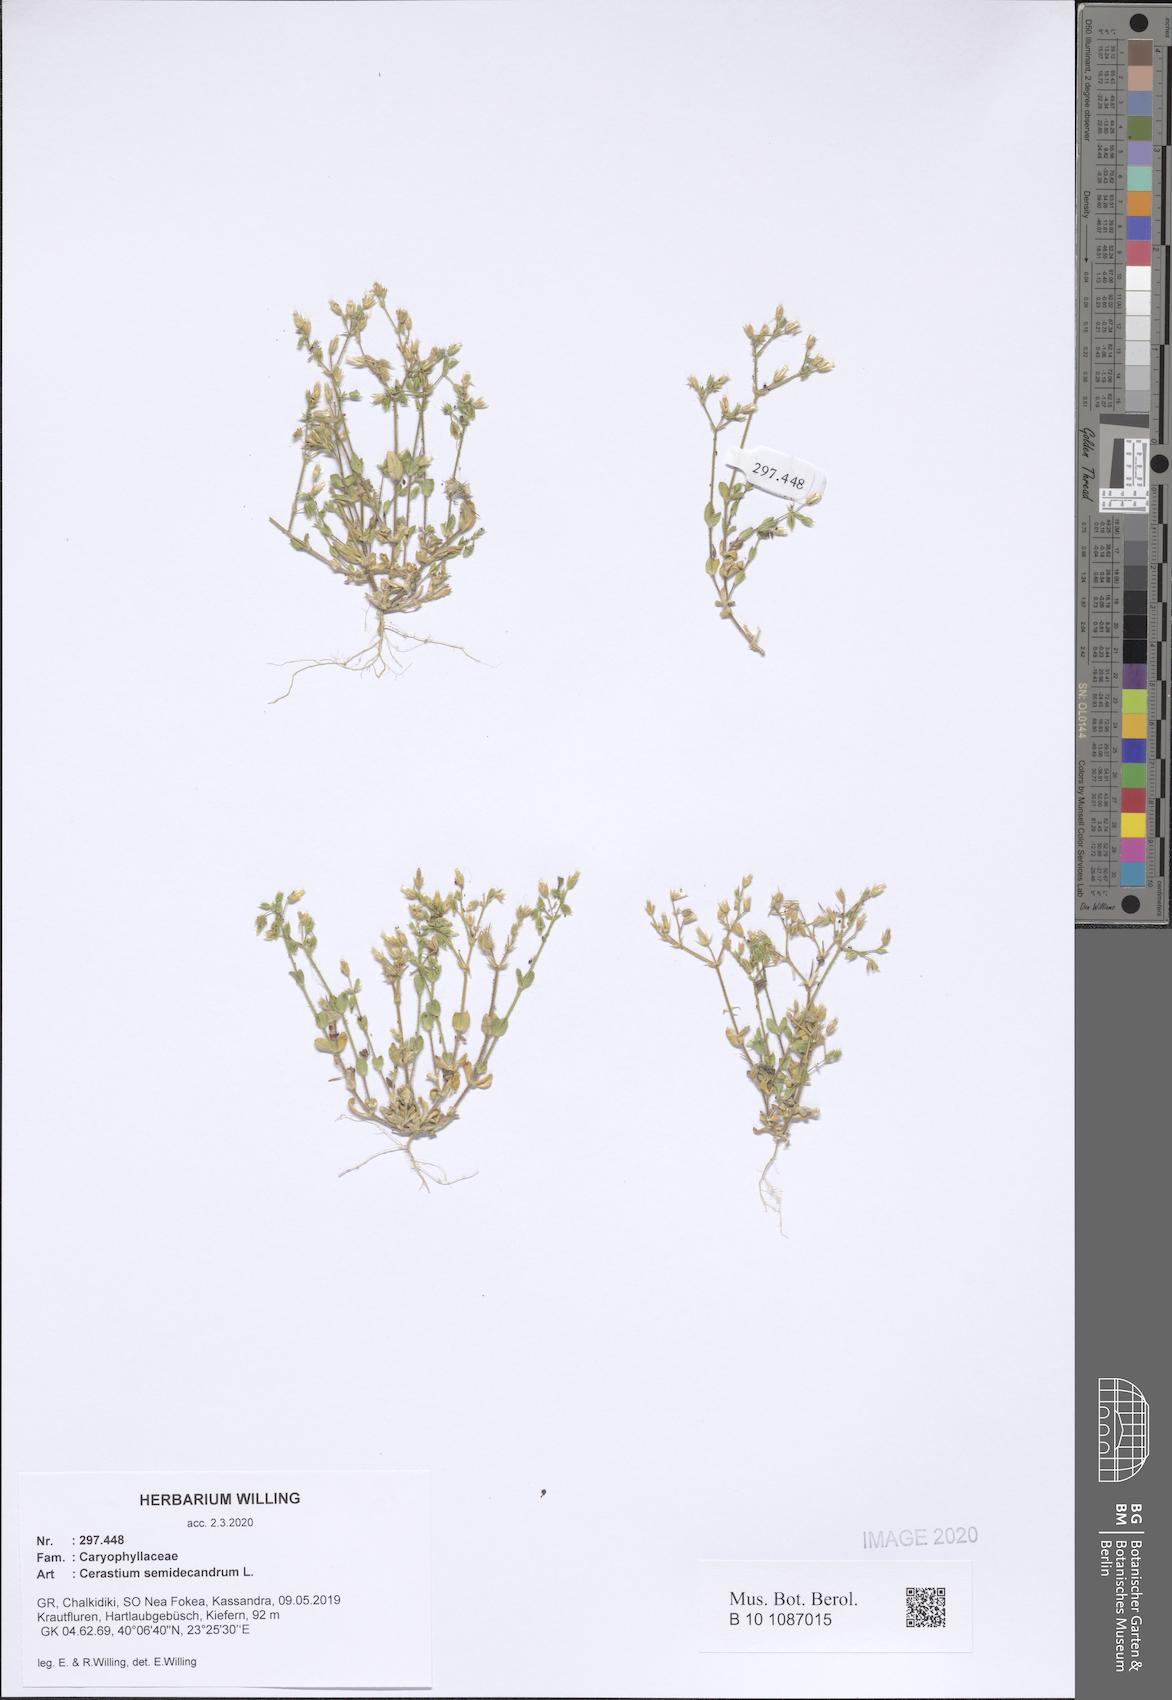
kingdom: Plantae
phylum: Tracheophyta
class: Magnoliopsida
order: Caryophyllales
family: Caryophyllaceae
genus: Cerastium
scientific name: Cerastium semidecandrum
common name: Little mouse-ear
